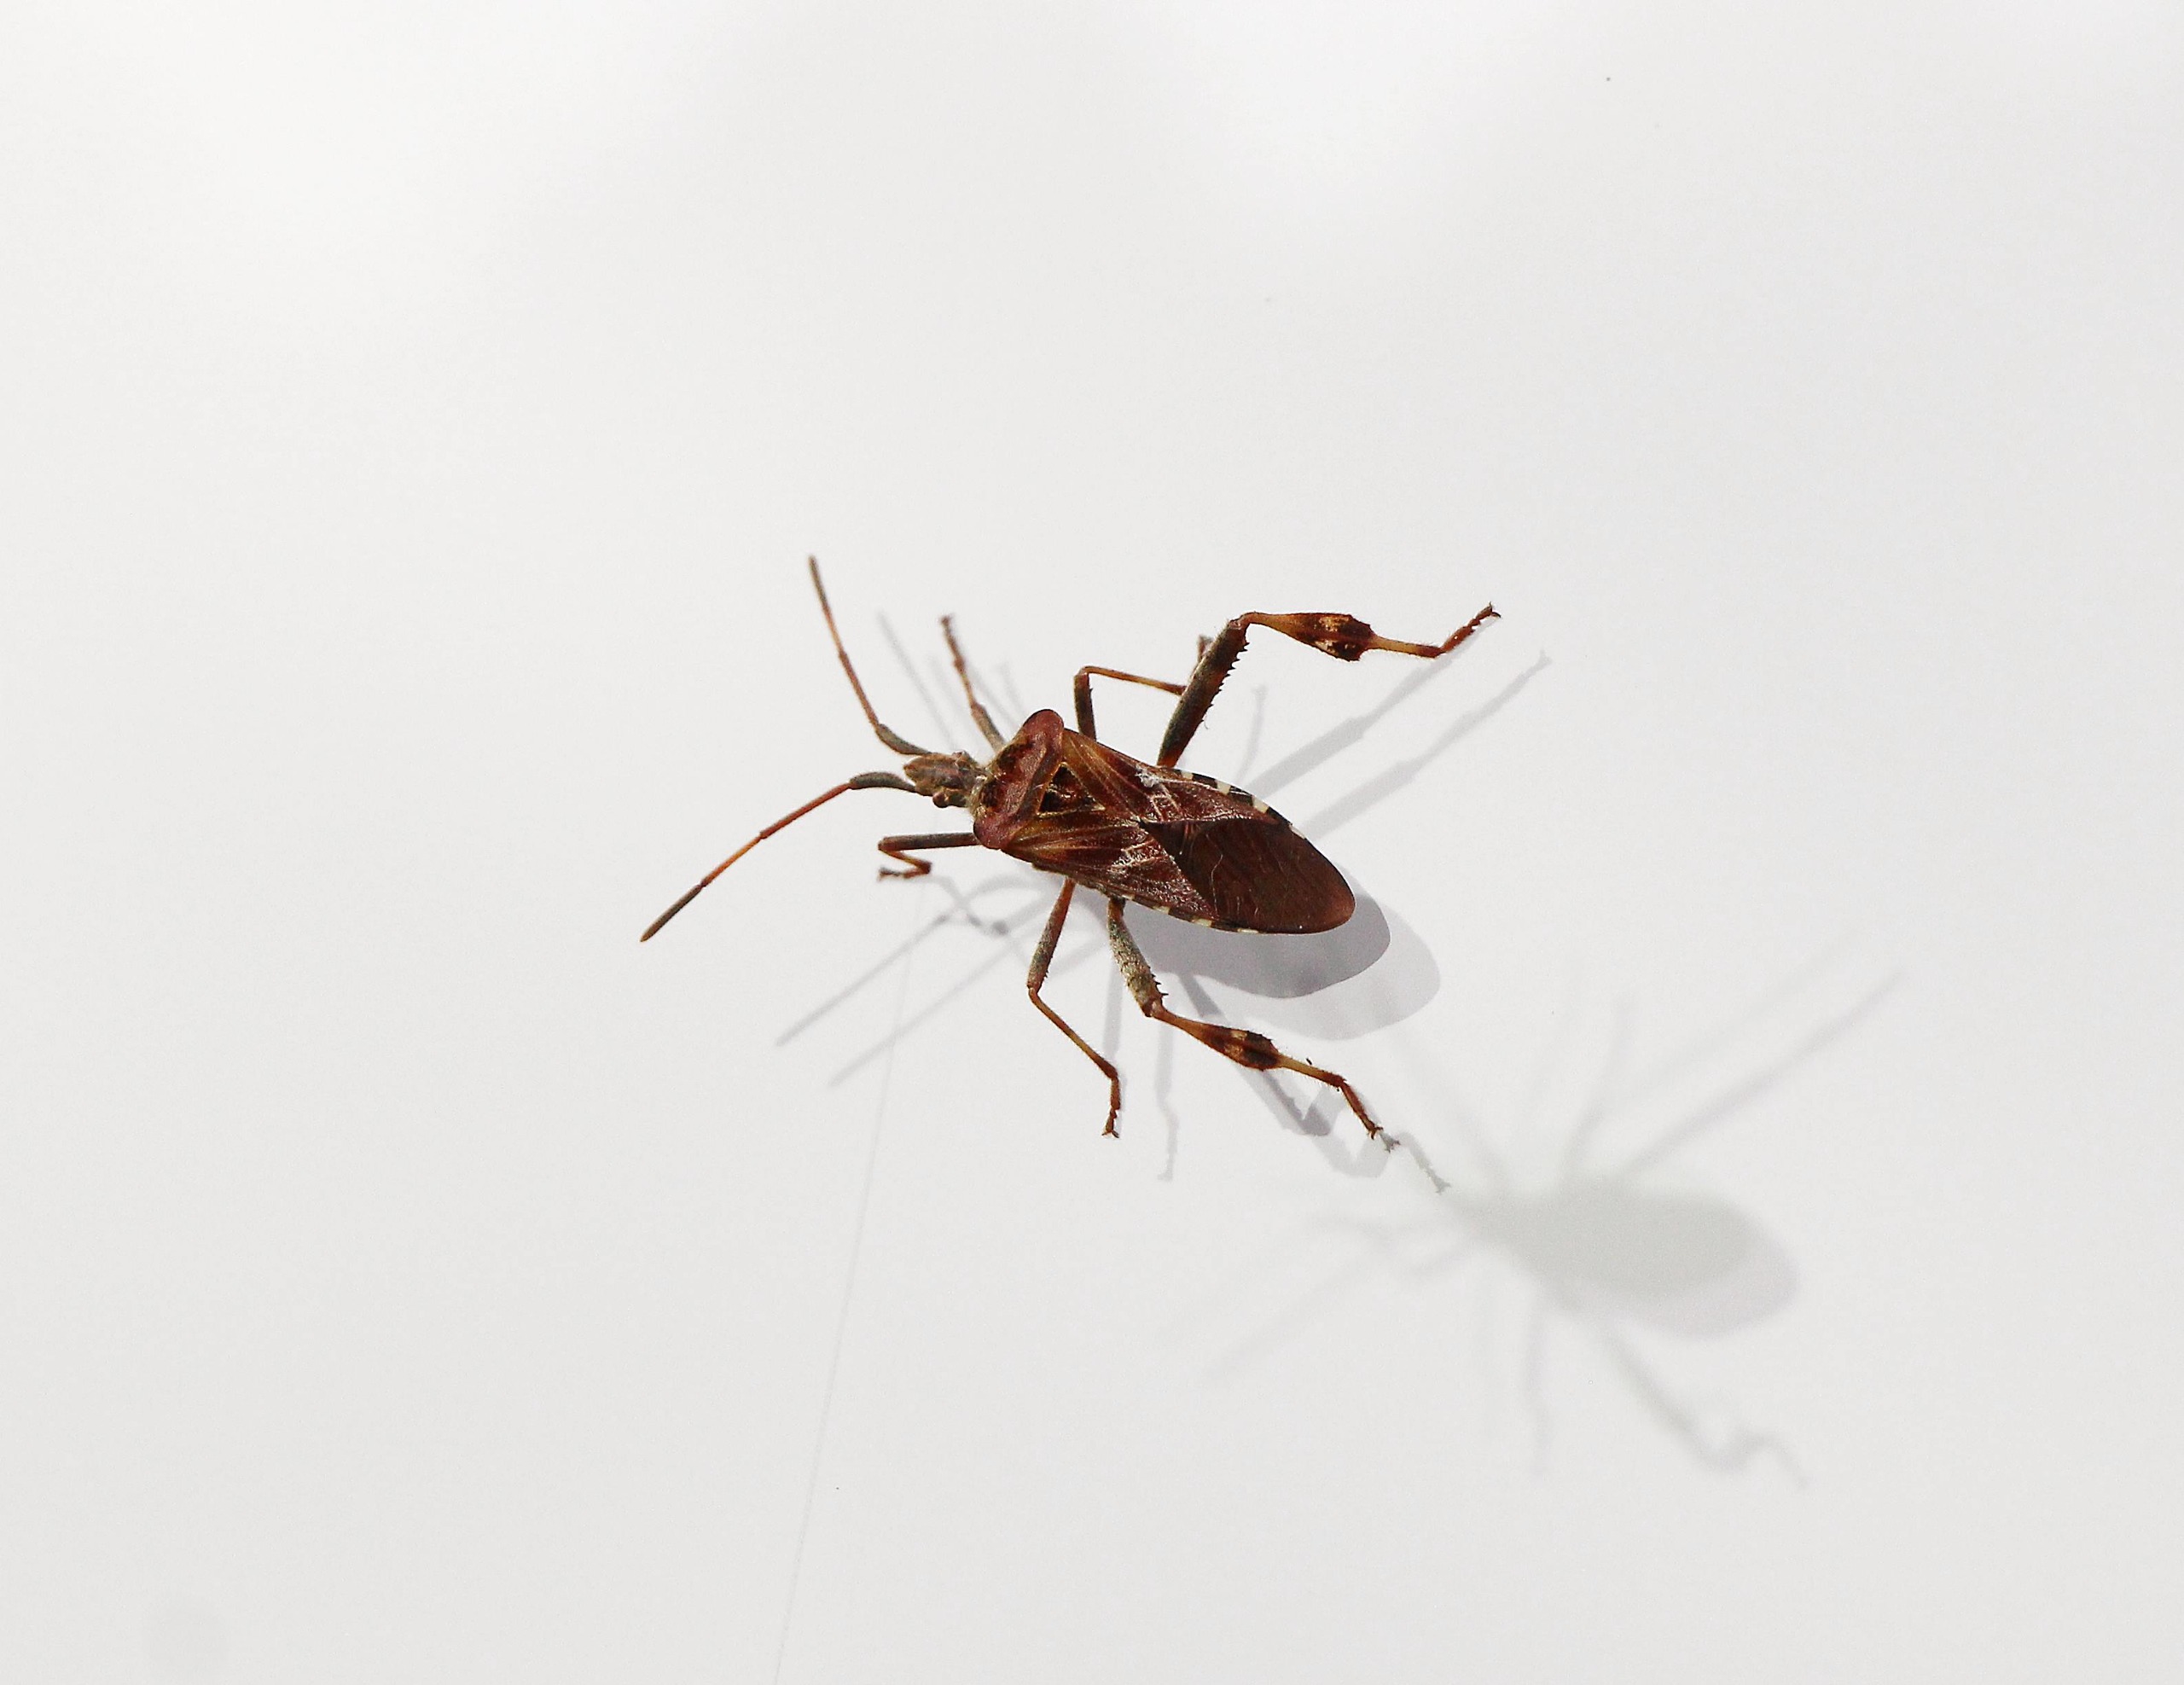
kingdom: Animalia
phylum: Arthropoda
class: Insecta
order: Hemiptera
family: Coreidae
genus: Leptoglossus
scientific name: Leptoglossus occidentalis
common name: Amerikansk fyrretæge
